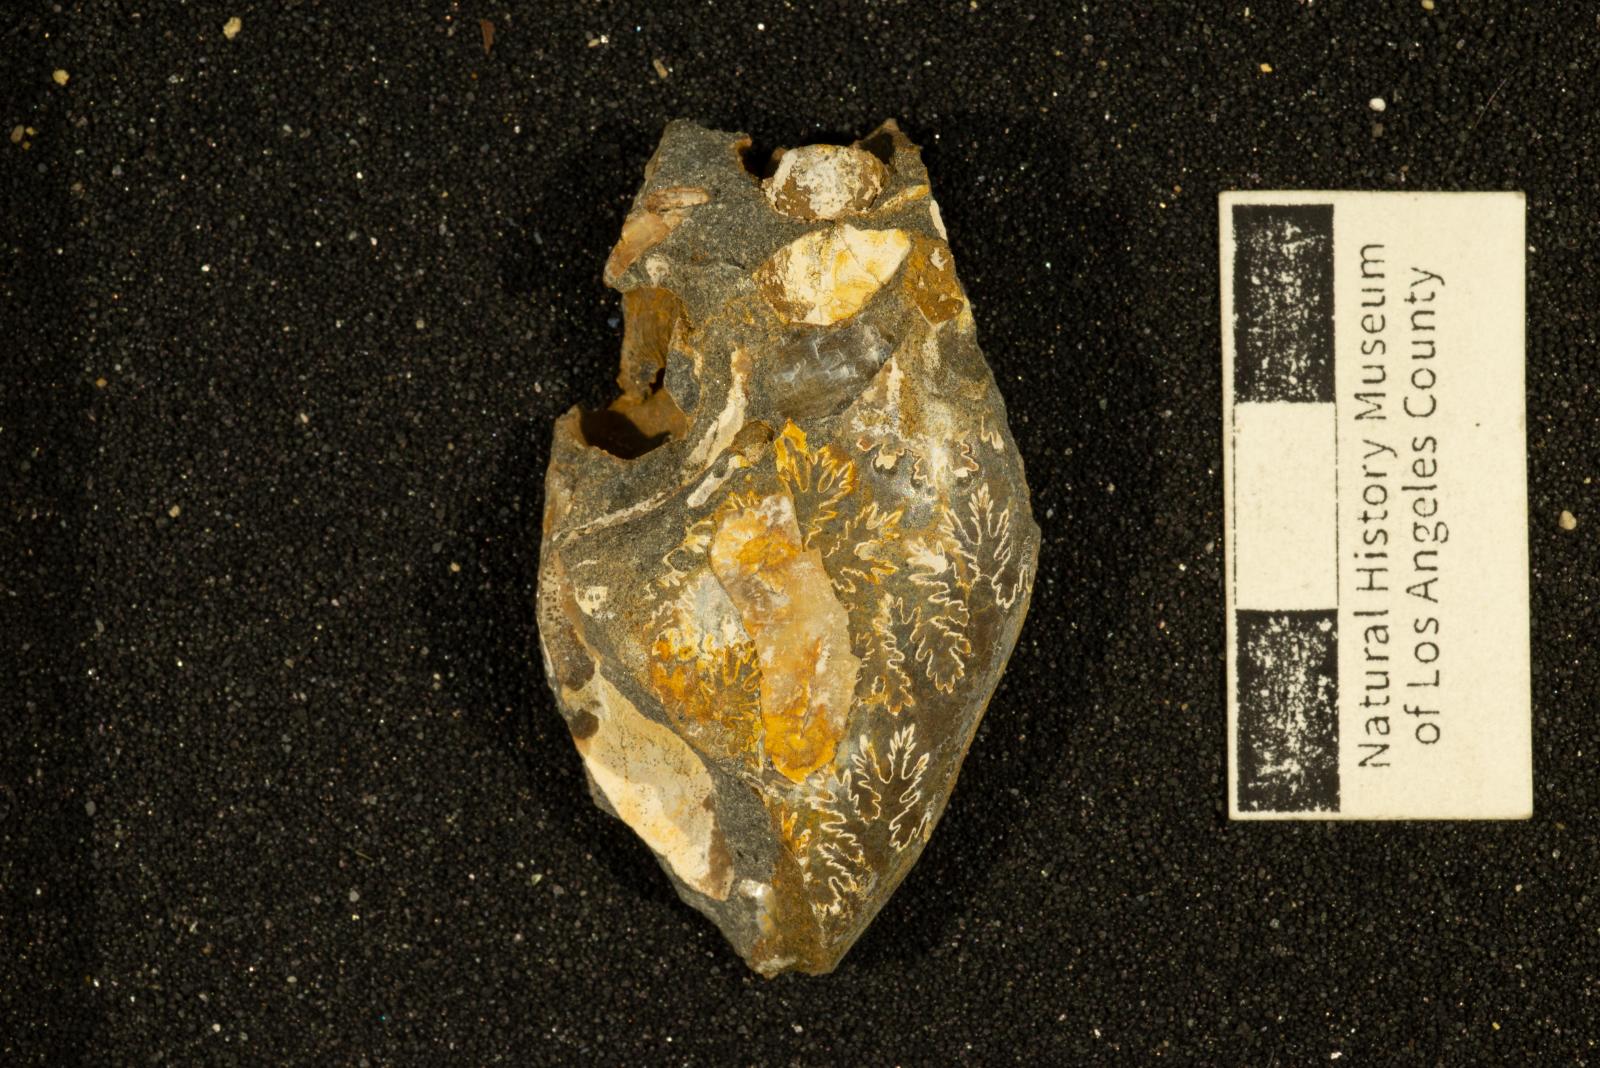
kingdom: Animalia
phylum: Mollusca
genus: Gardeniceras
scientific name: Gardeniceras Hauericeras angustum
